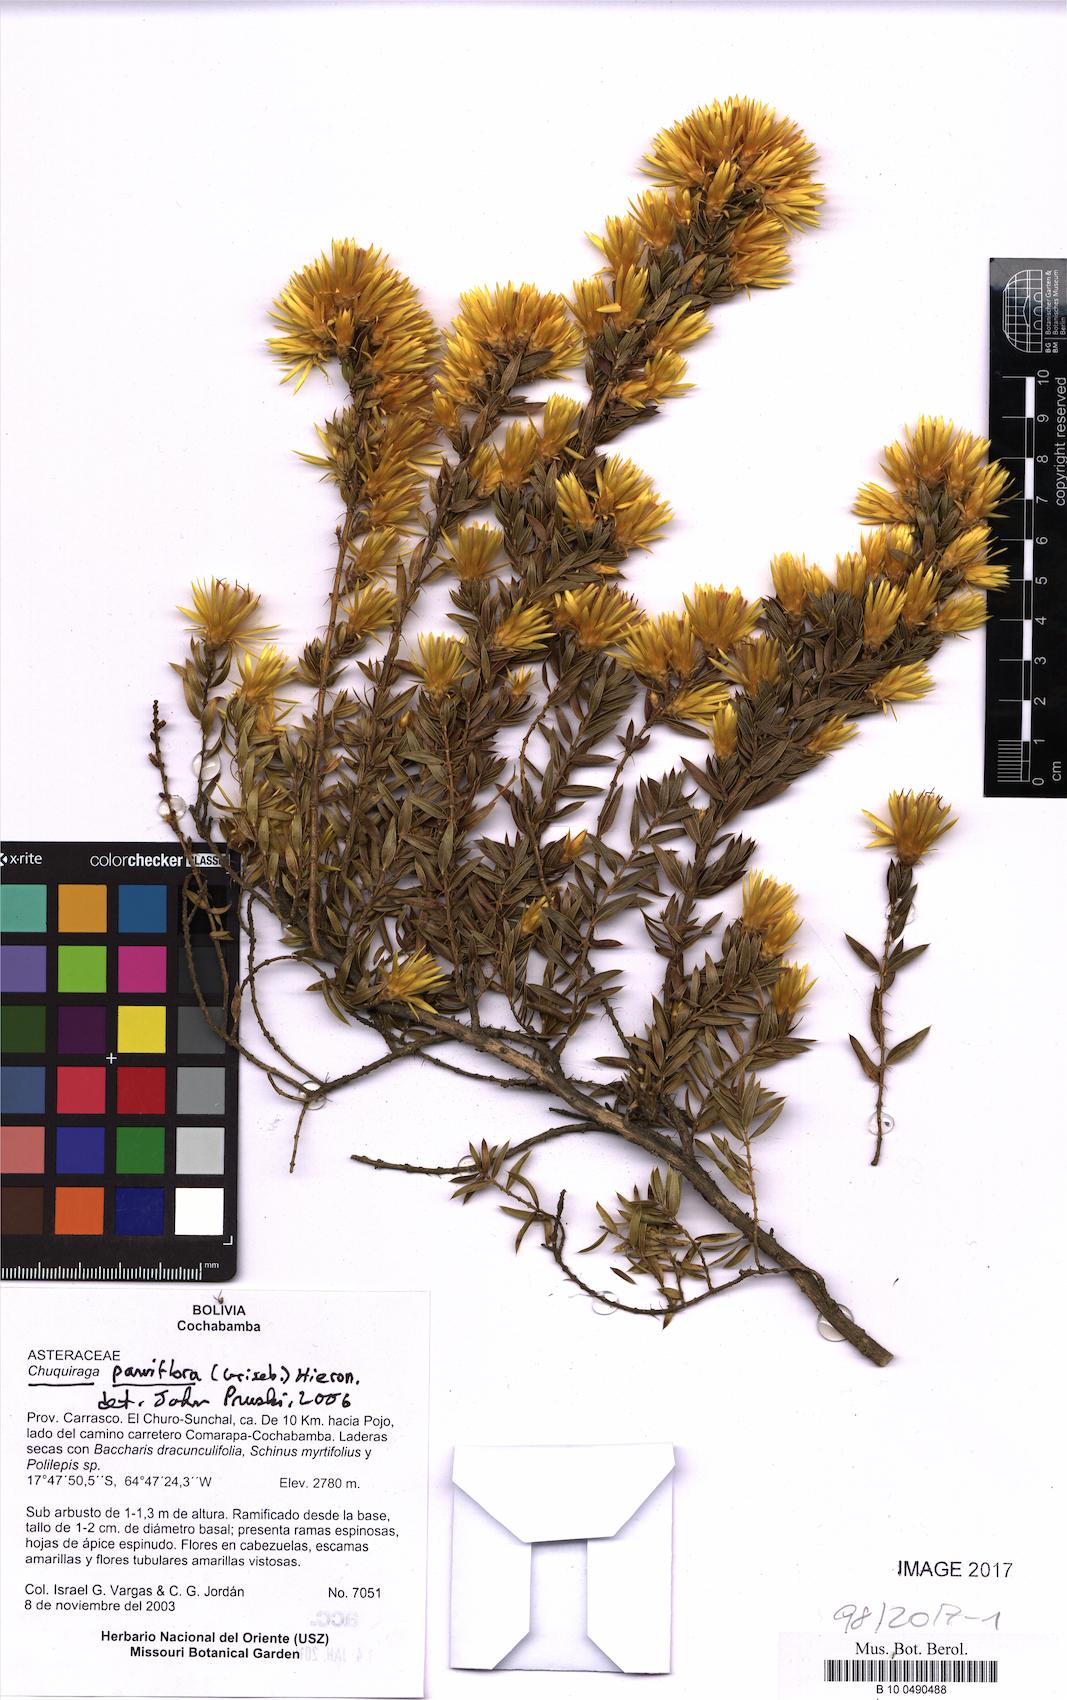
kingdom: Plantae
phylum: Tracheophyta
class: Magnoliopsida
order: Asterales
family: Asteraceae
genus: Chuquiraga
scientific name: Chuquiraga parviflora
